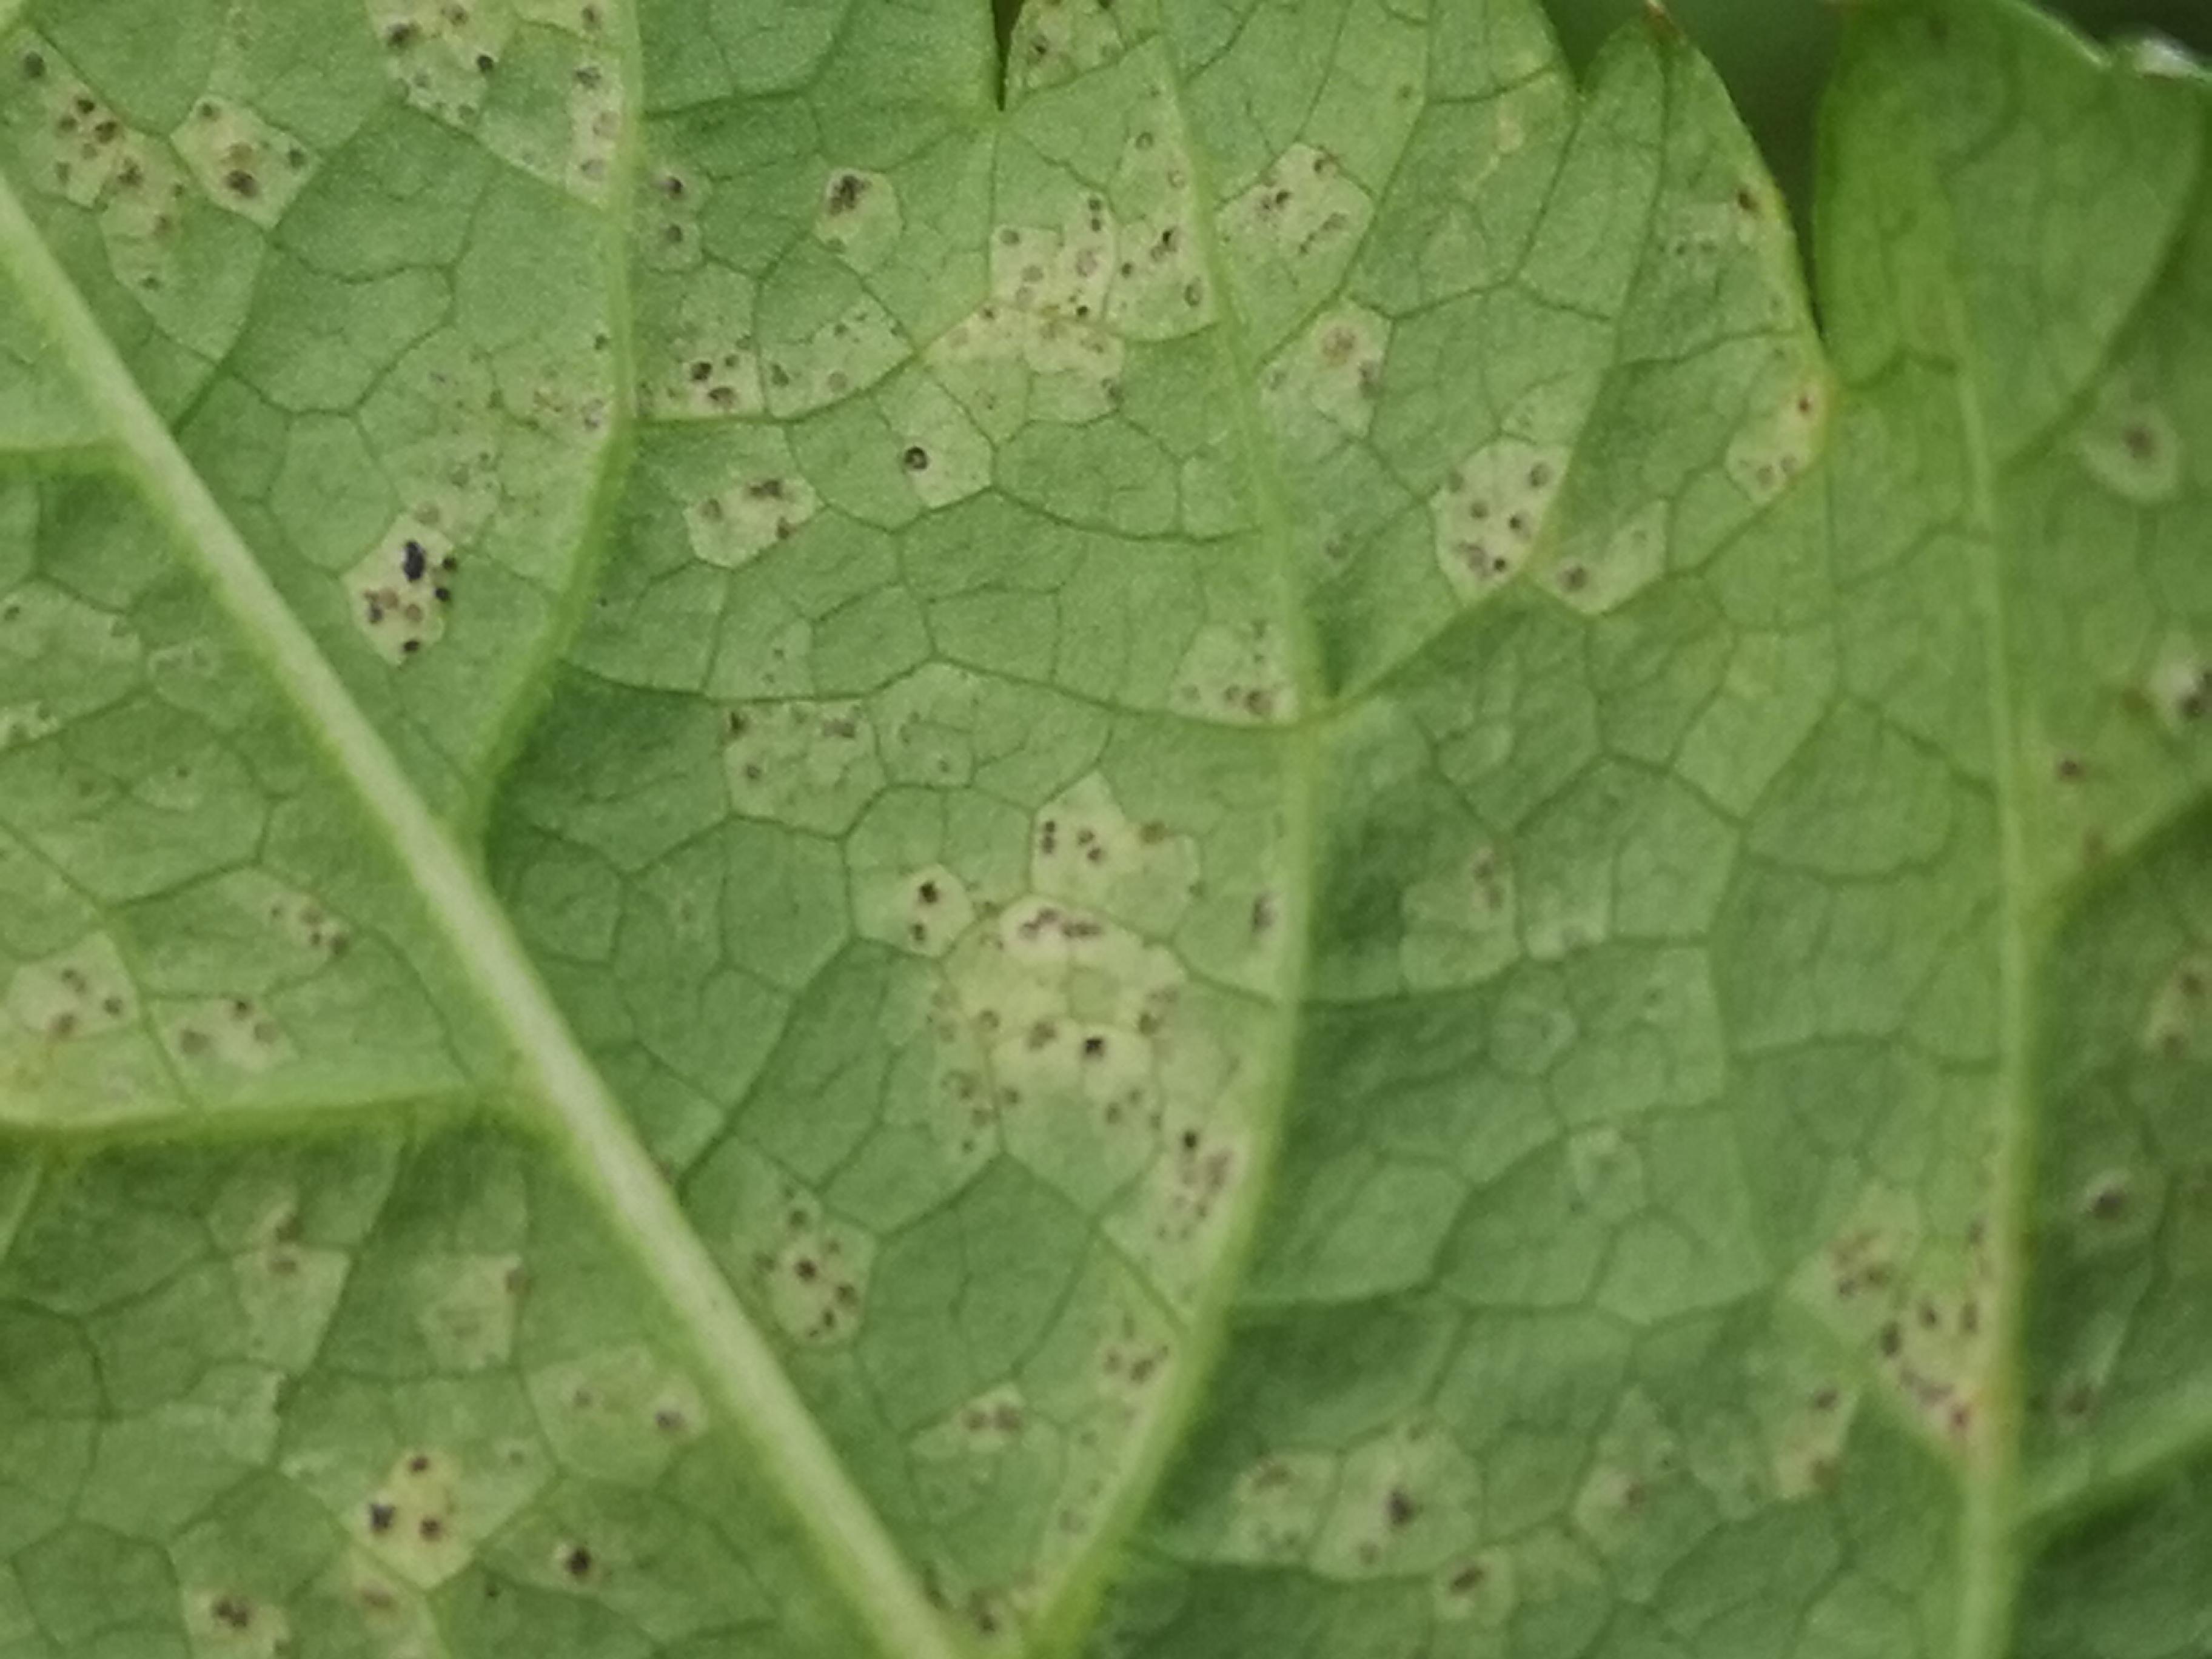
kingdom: Fungi
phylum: Ascomycota
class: Dothideomycetes
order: Mycosphaerellales
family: Mycosphaerellaceae
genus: Mycosphaerella
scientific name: Mycosphaerella podagrariae
